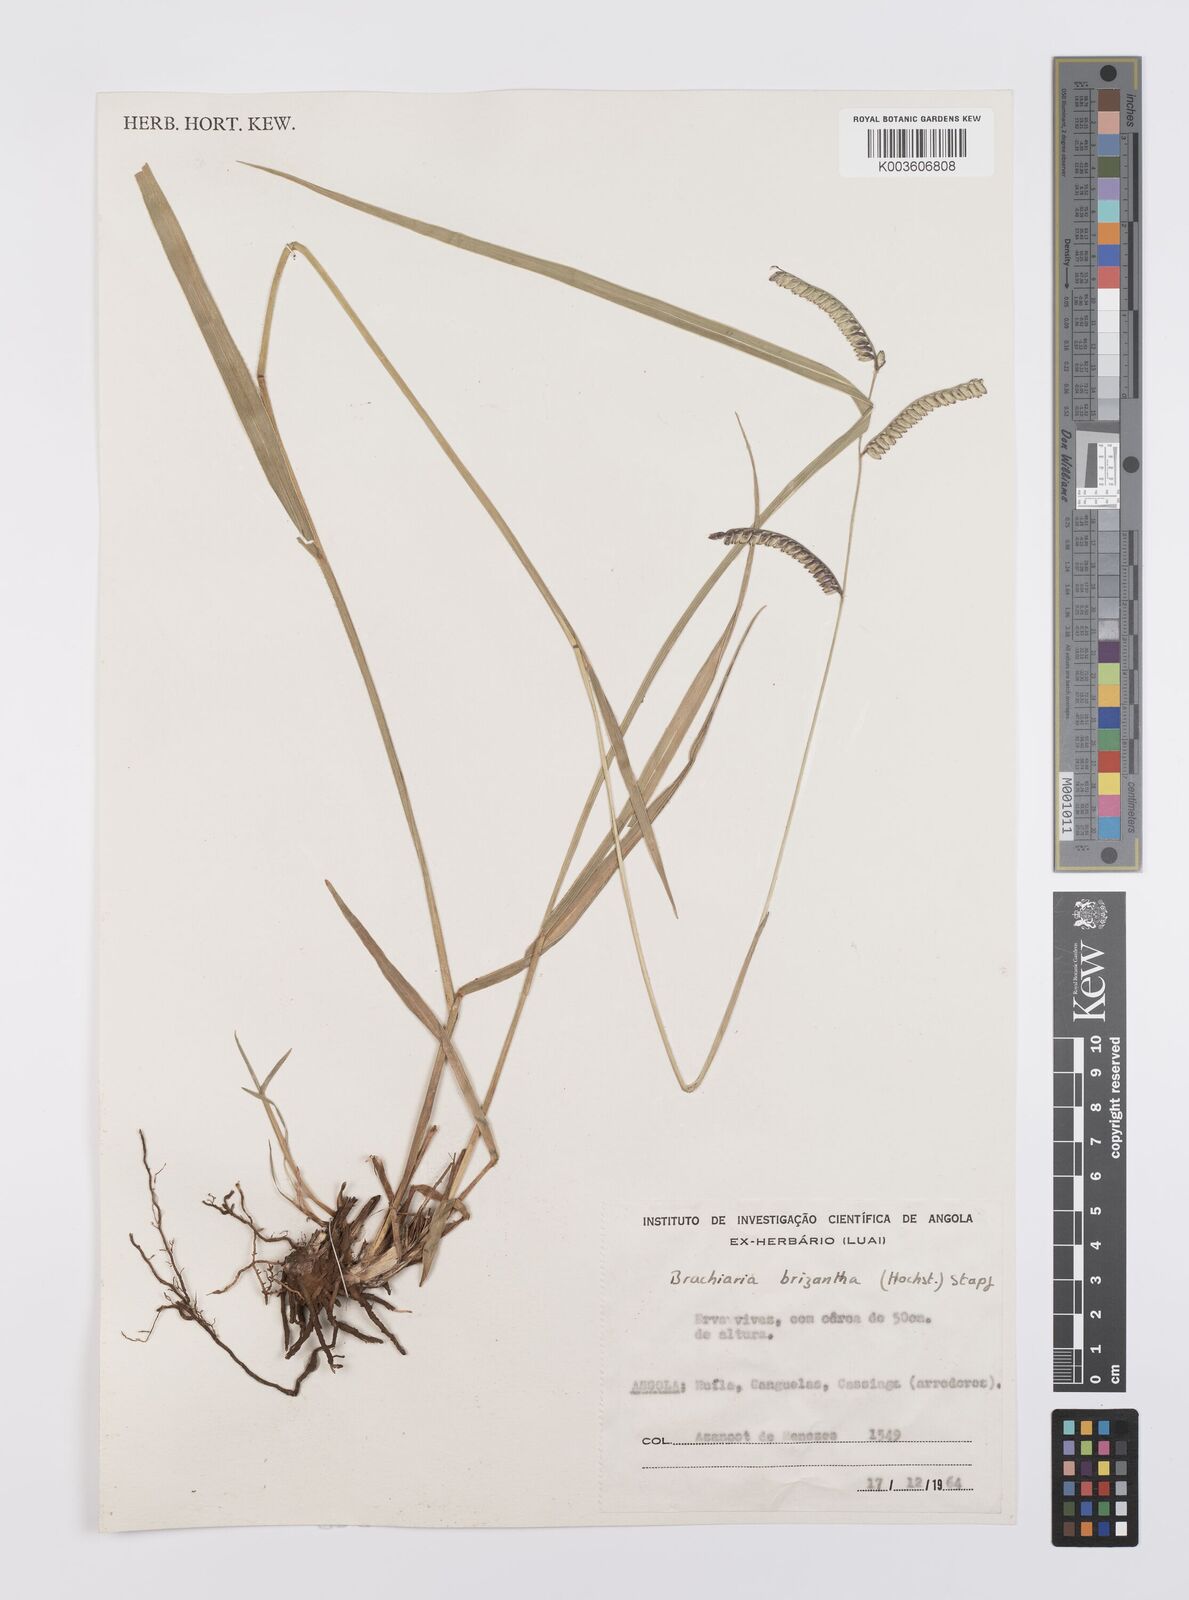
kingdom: Plantae
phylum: Tracheophyta
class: Liliopsida
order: Poales
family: Poaceae
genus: Urochloa
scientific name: Urochloa brizantha
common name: Palisade signalgrass
